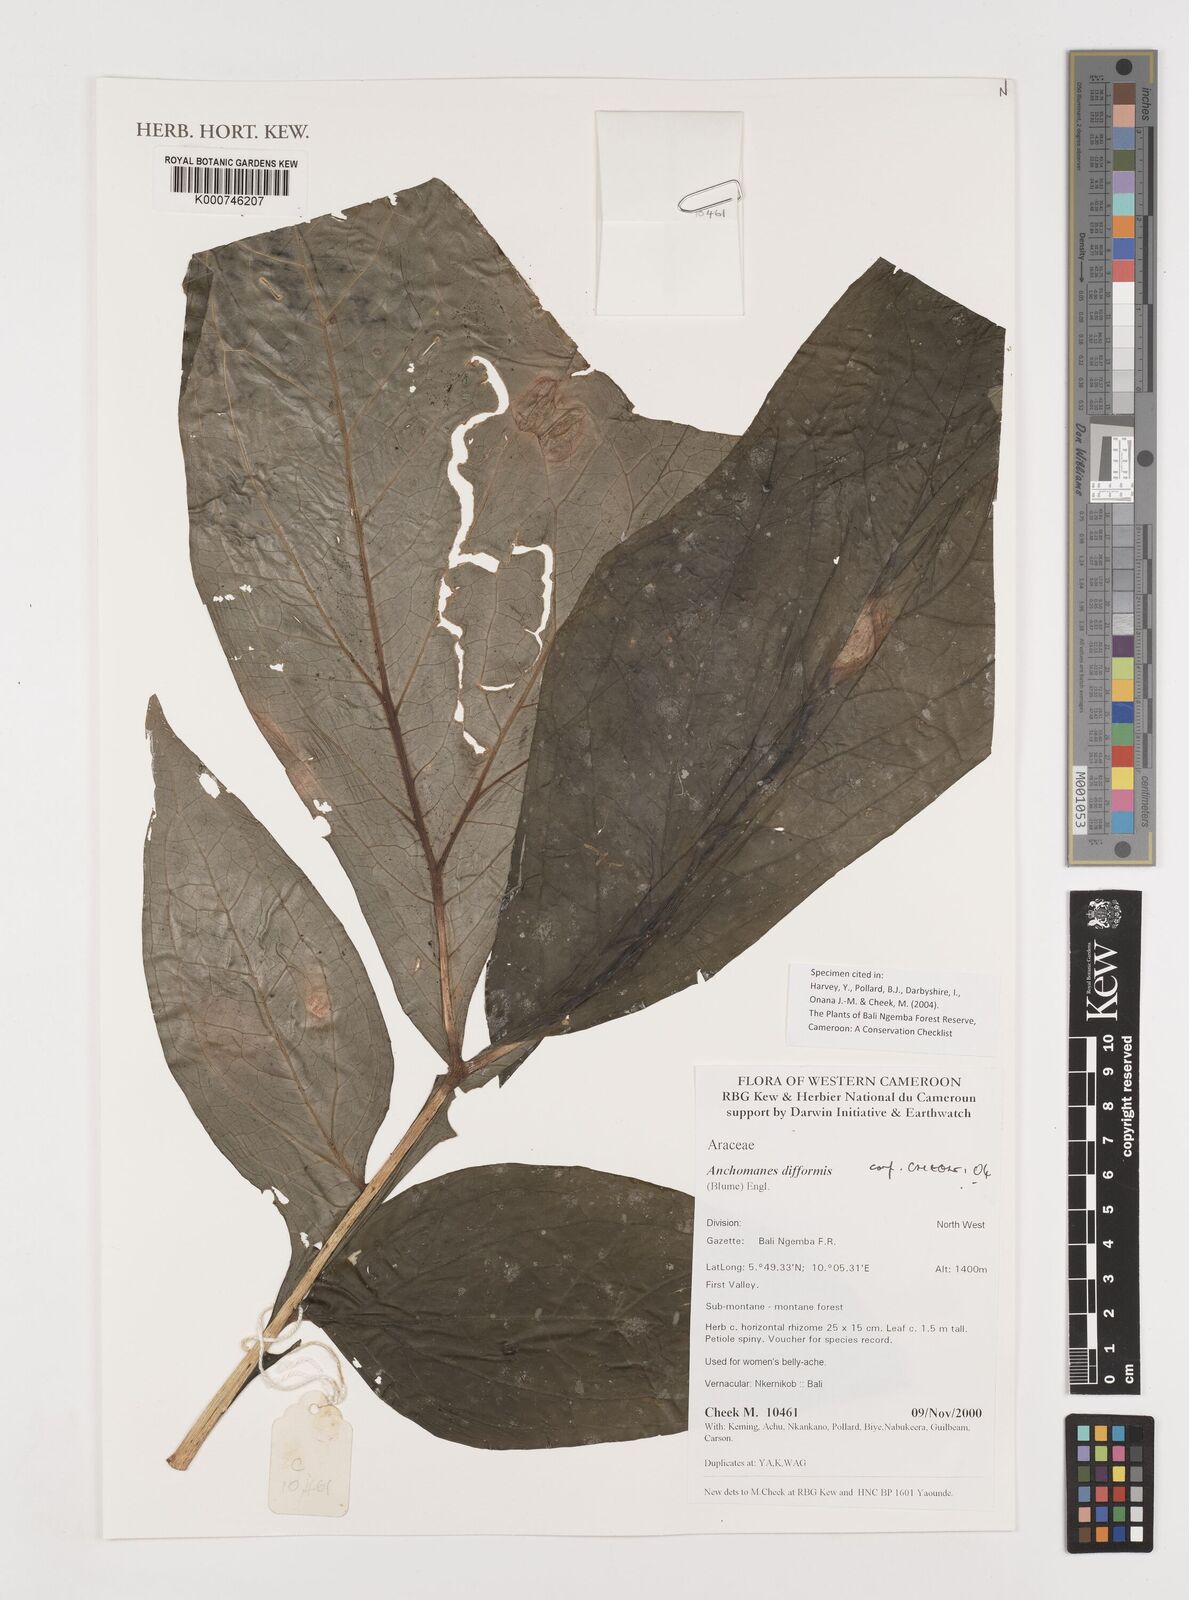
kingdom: Plantae
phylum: Tracheophyta
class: Liliopsida
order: Alismatales
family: Araceae
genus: Anchomanes
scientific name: Anchomanes difformis
